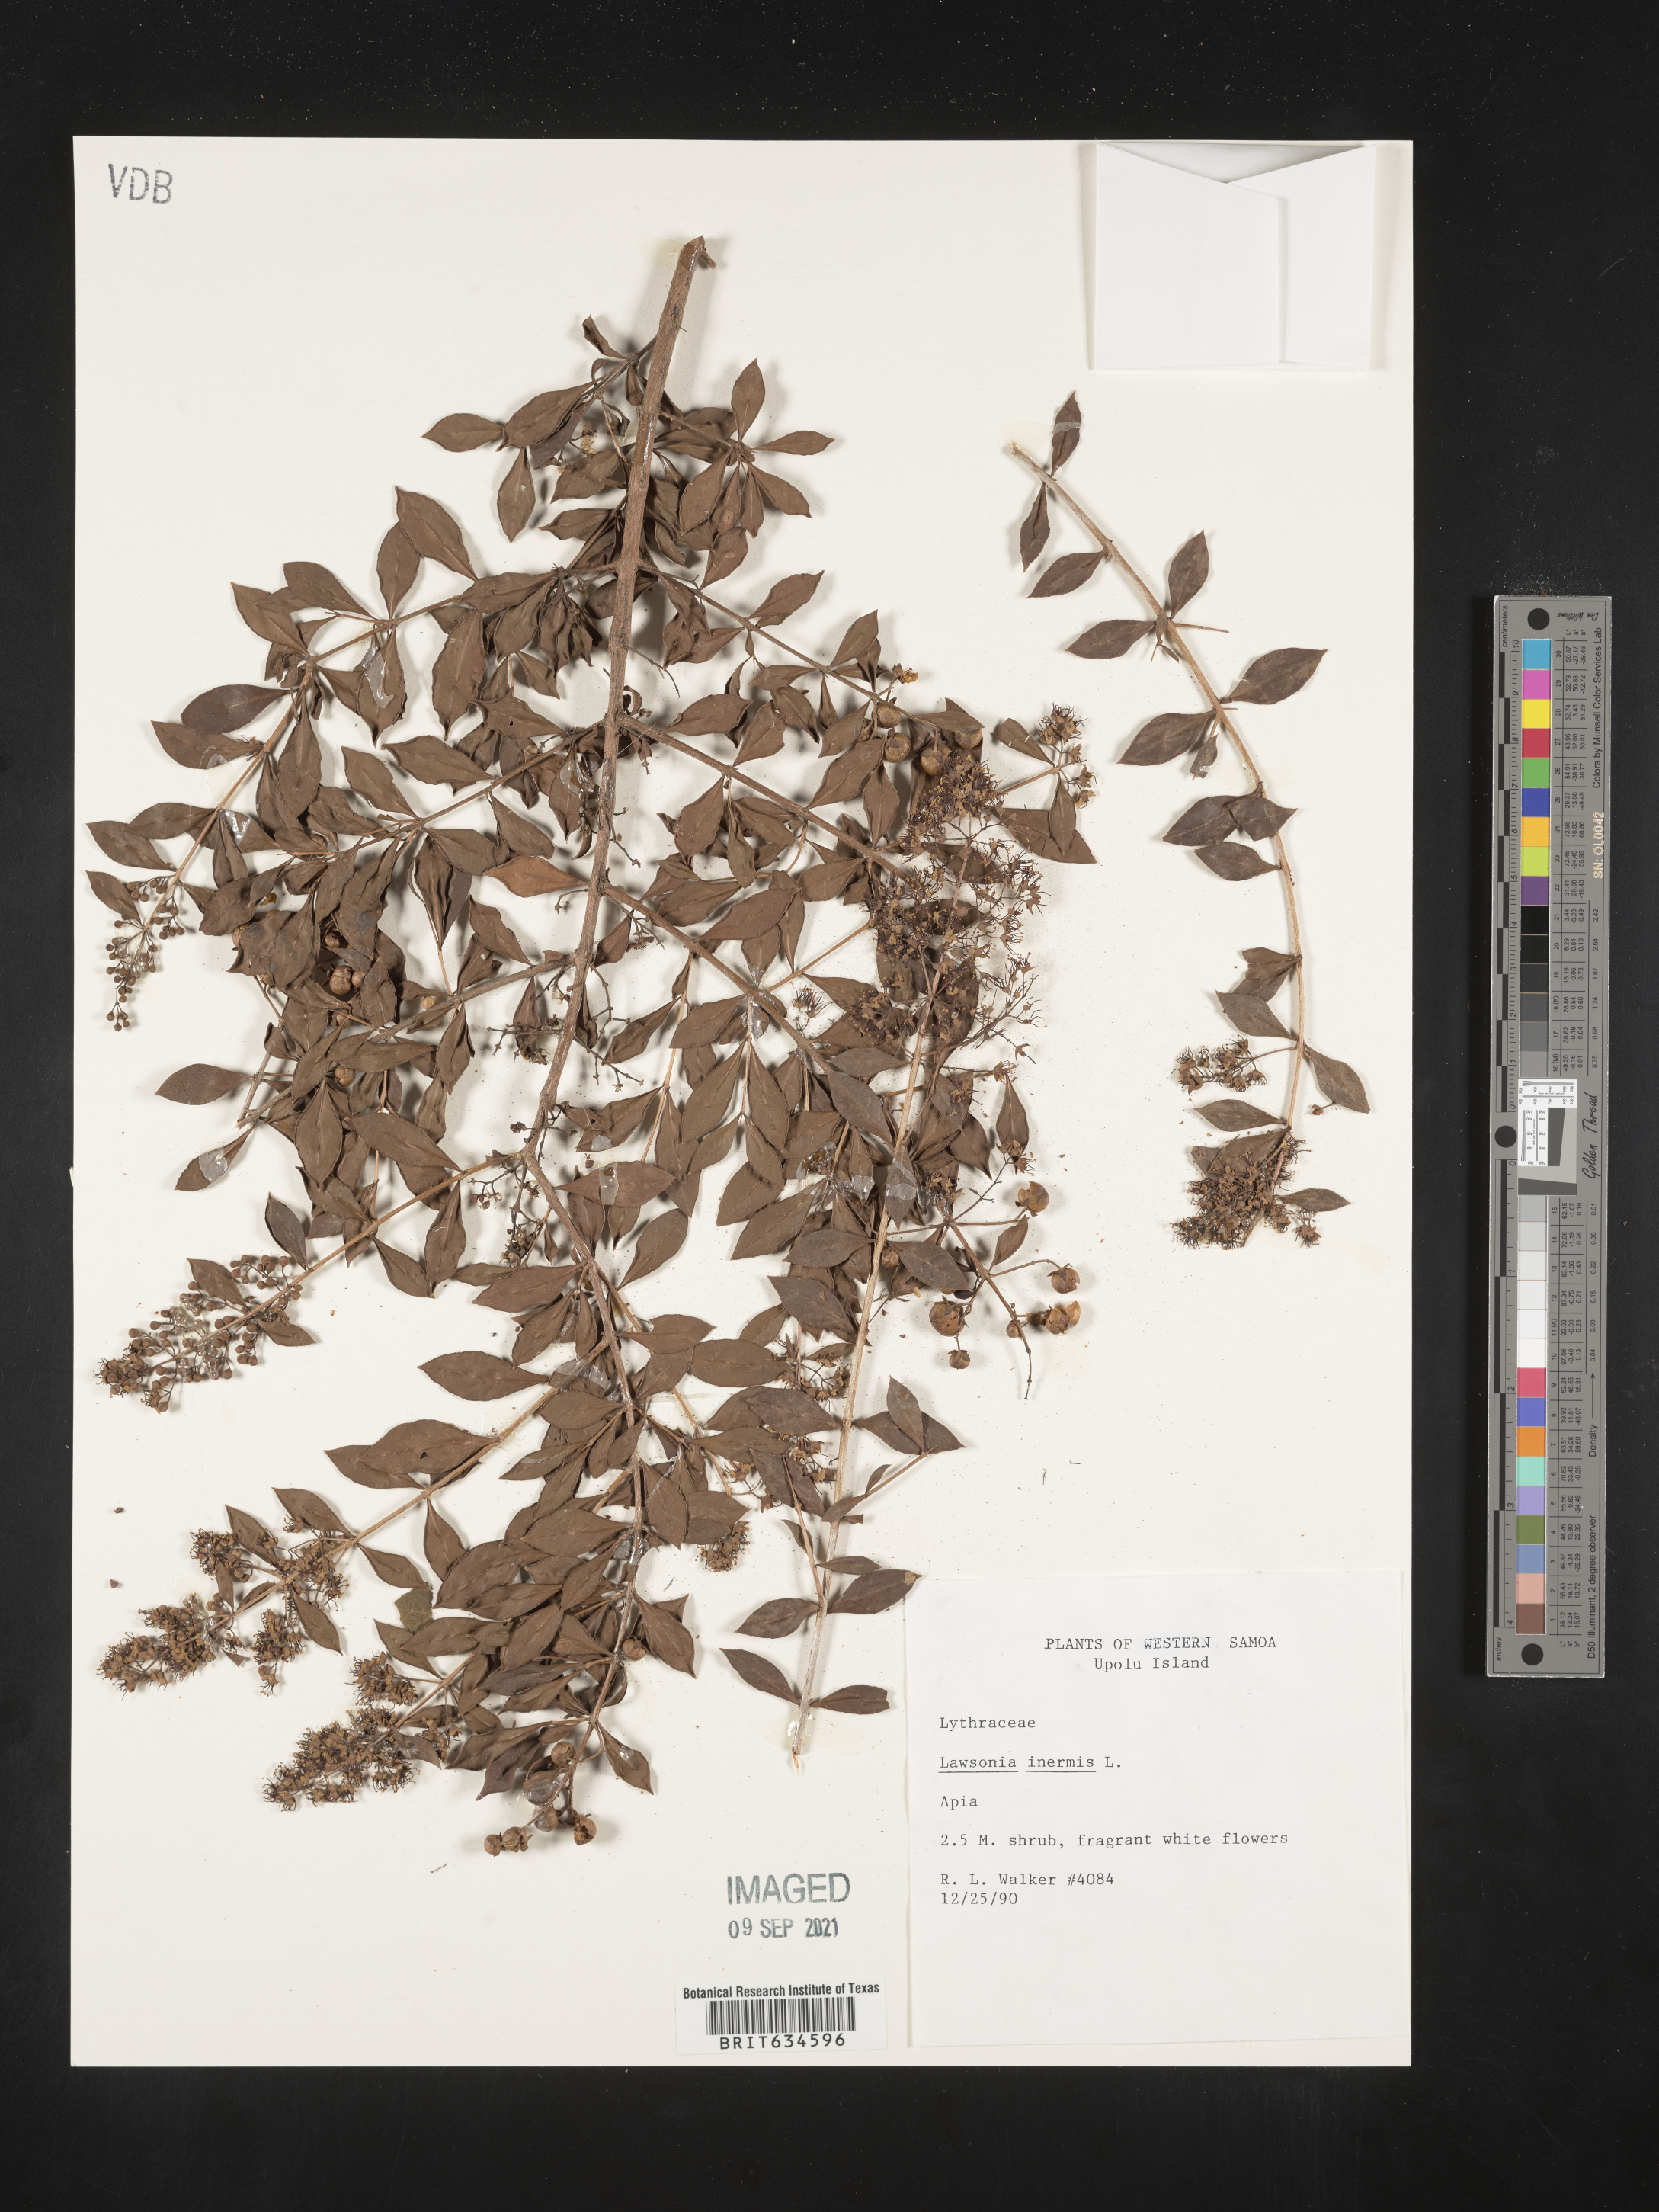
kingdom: Plantae
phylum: Tracheophyta
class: Magnoliopsida
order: Myrtales
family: Lythraceae
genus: Lawsonia
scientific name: Lawsonia
